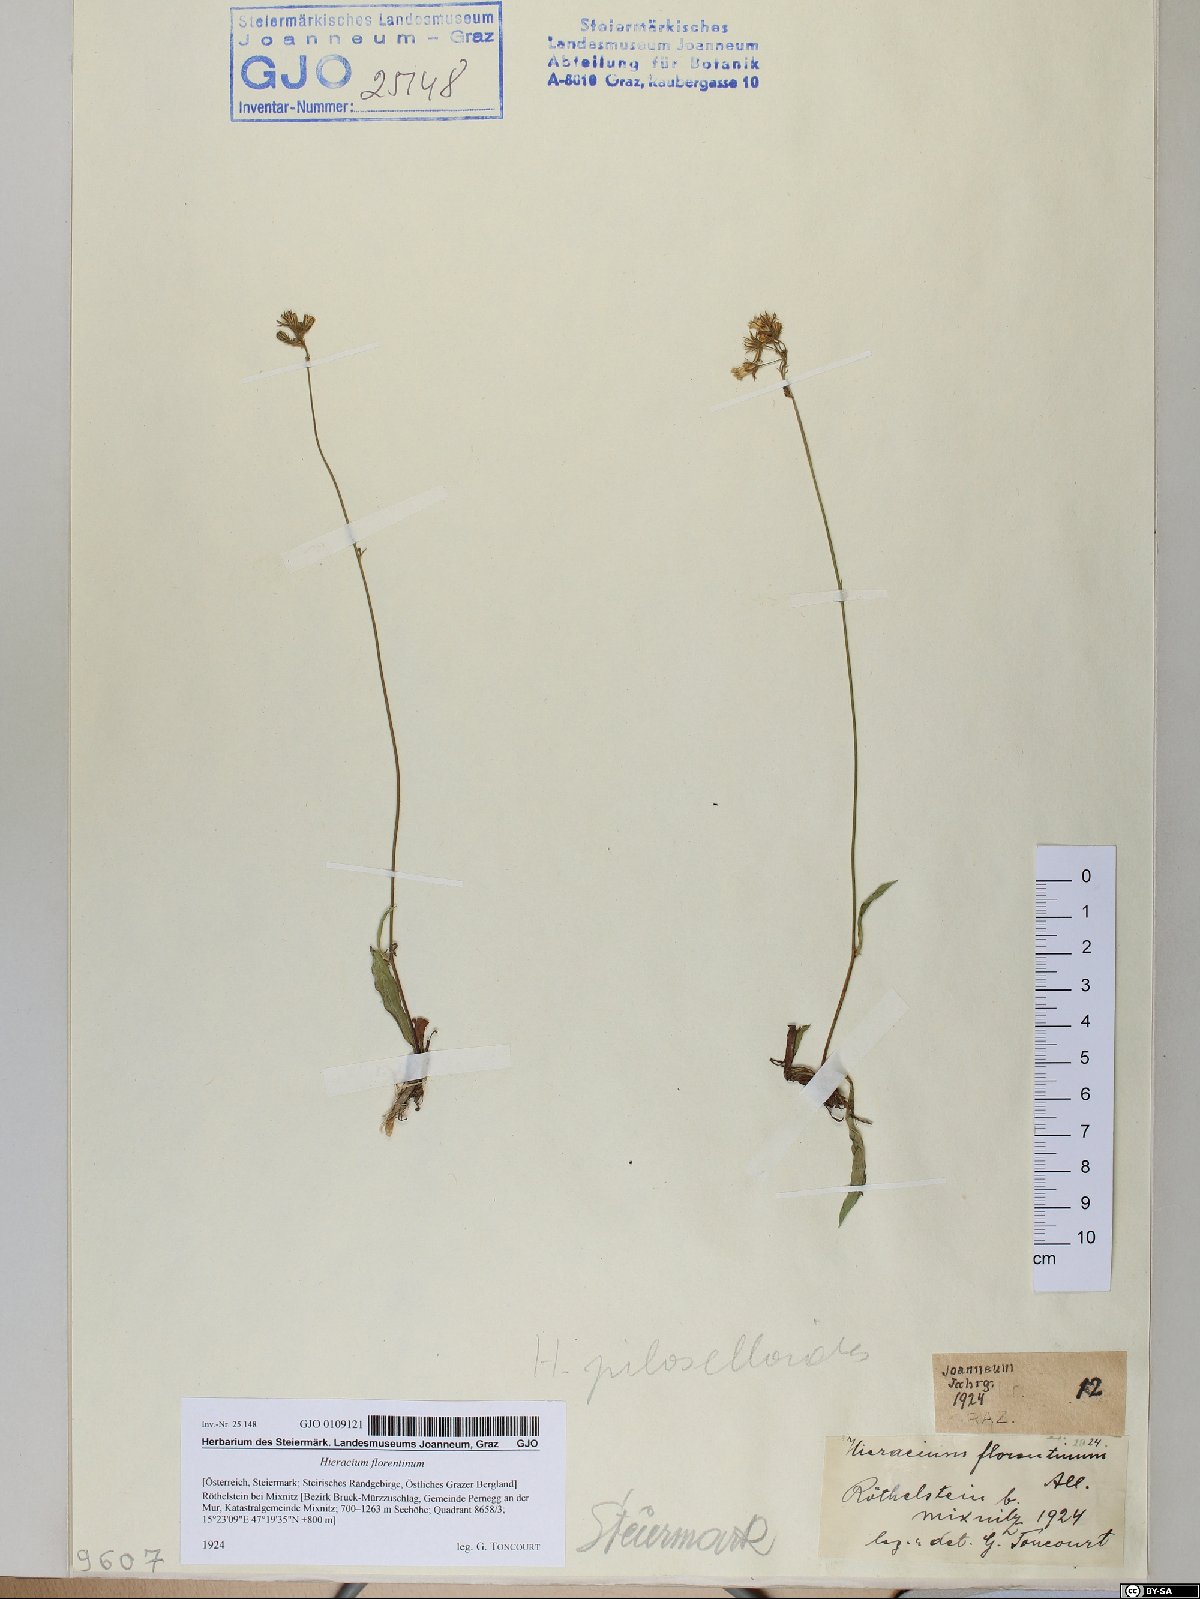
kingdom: Plantae
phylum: Tracheophyta
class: Magnoliopsida
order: Asterales
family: Asteraceae
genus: Pilosella
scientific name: Pilosella piloselloides
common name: Glaucous king-devil
